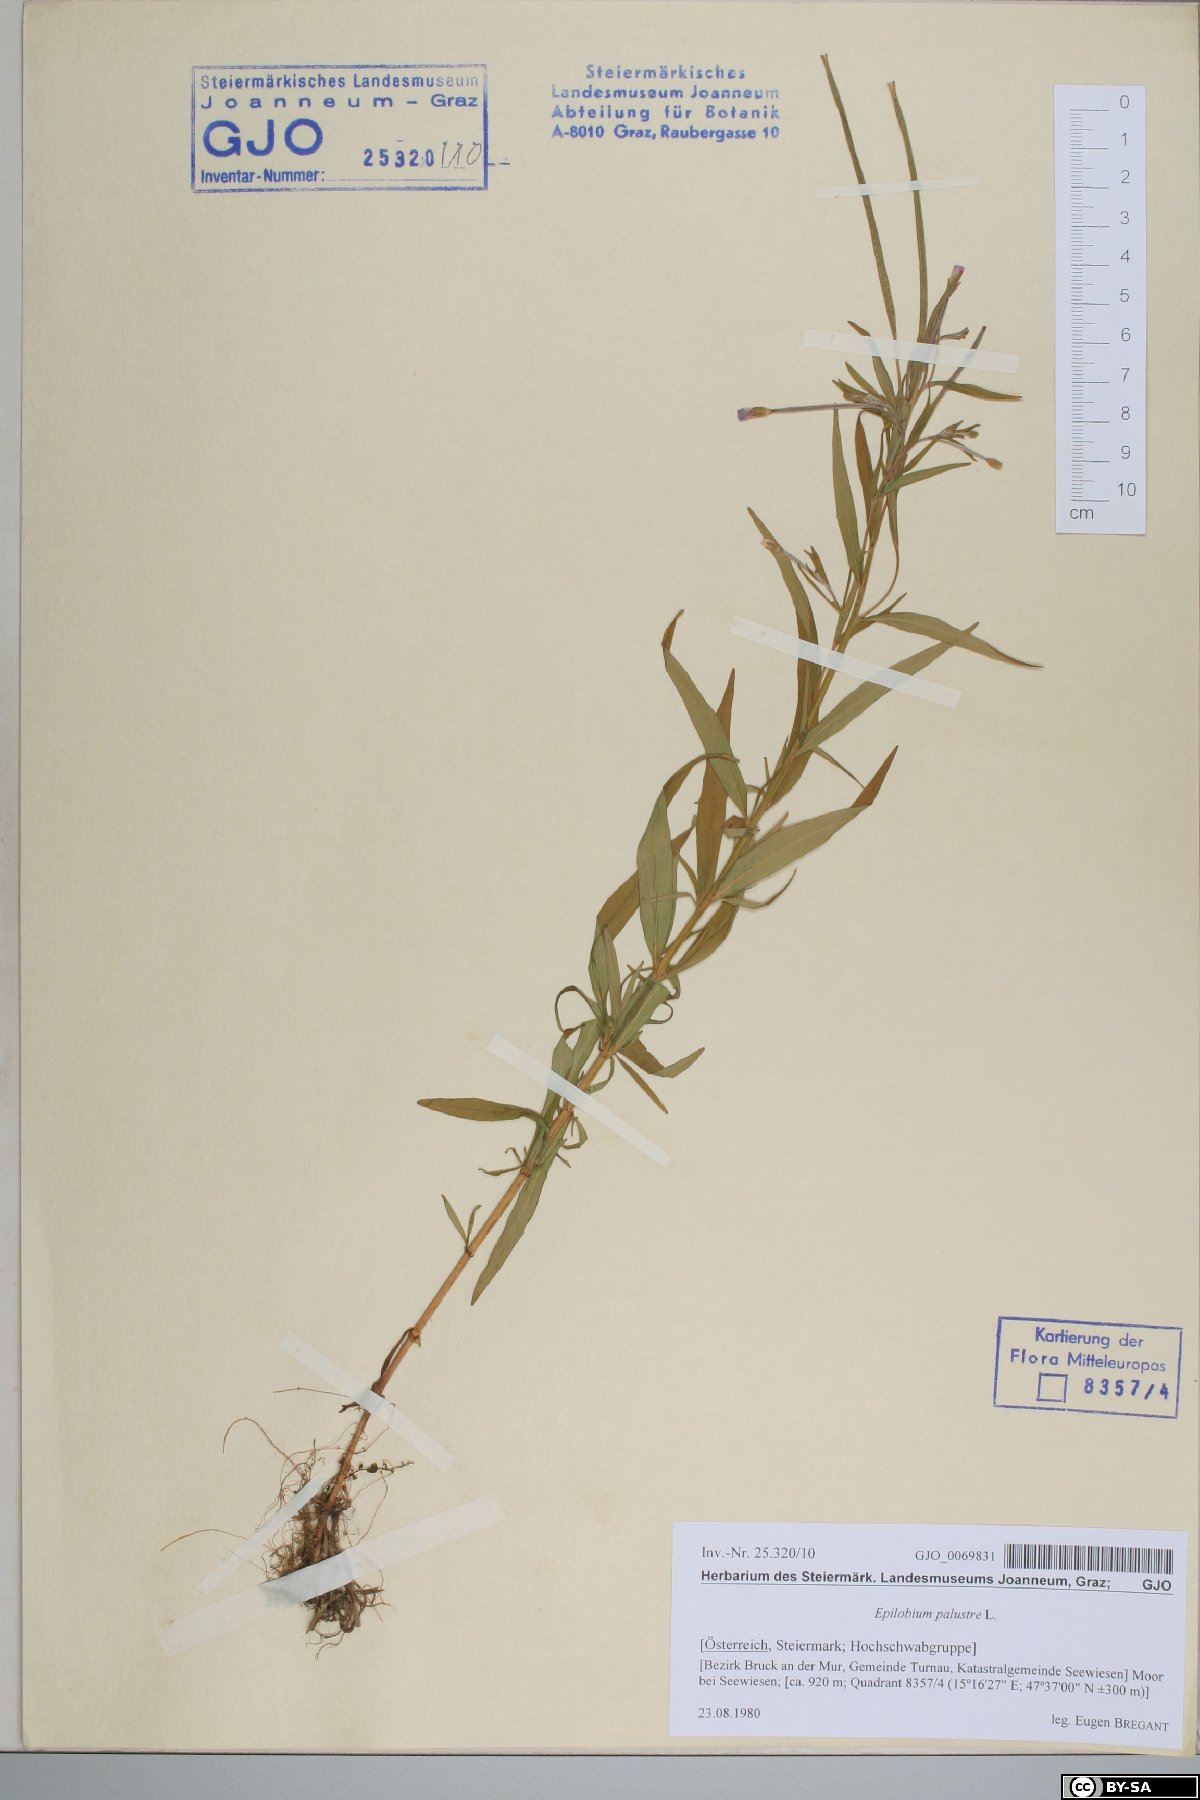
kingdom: Plantae
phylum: Tracheophyta
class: Magnoliopsida
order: Myrtales
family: Onagraceae
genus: Epilobium
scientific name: Epilobium palustre
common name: Marsh willowherb
